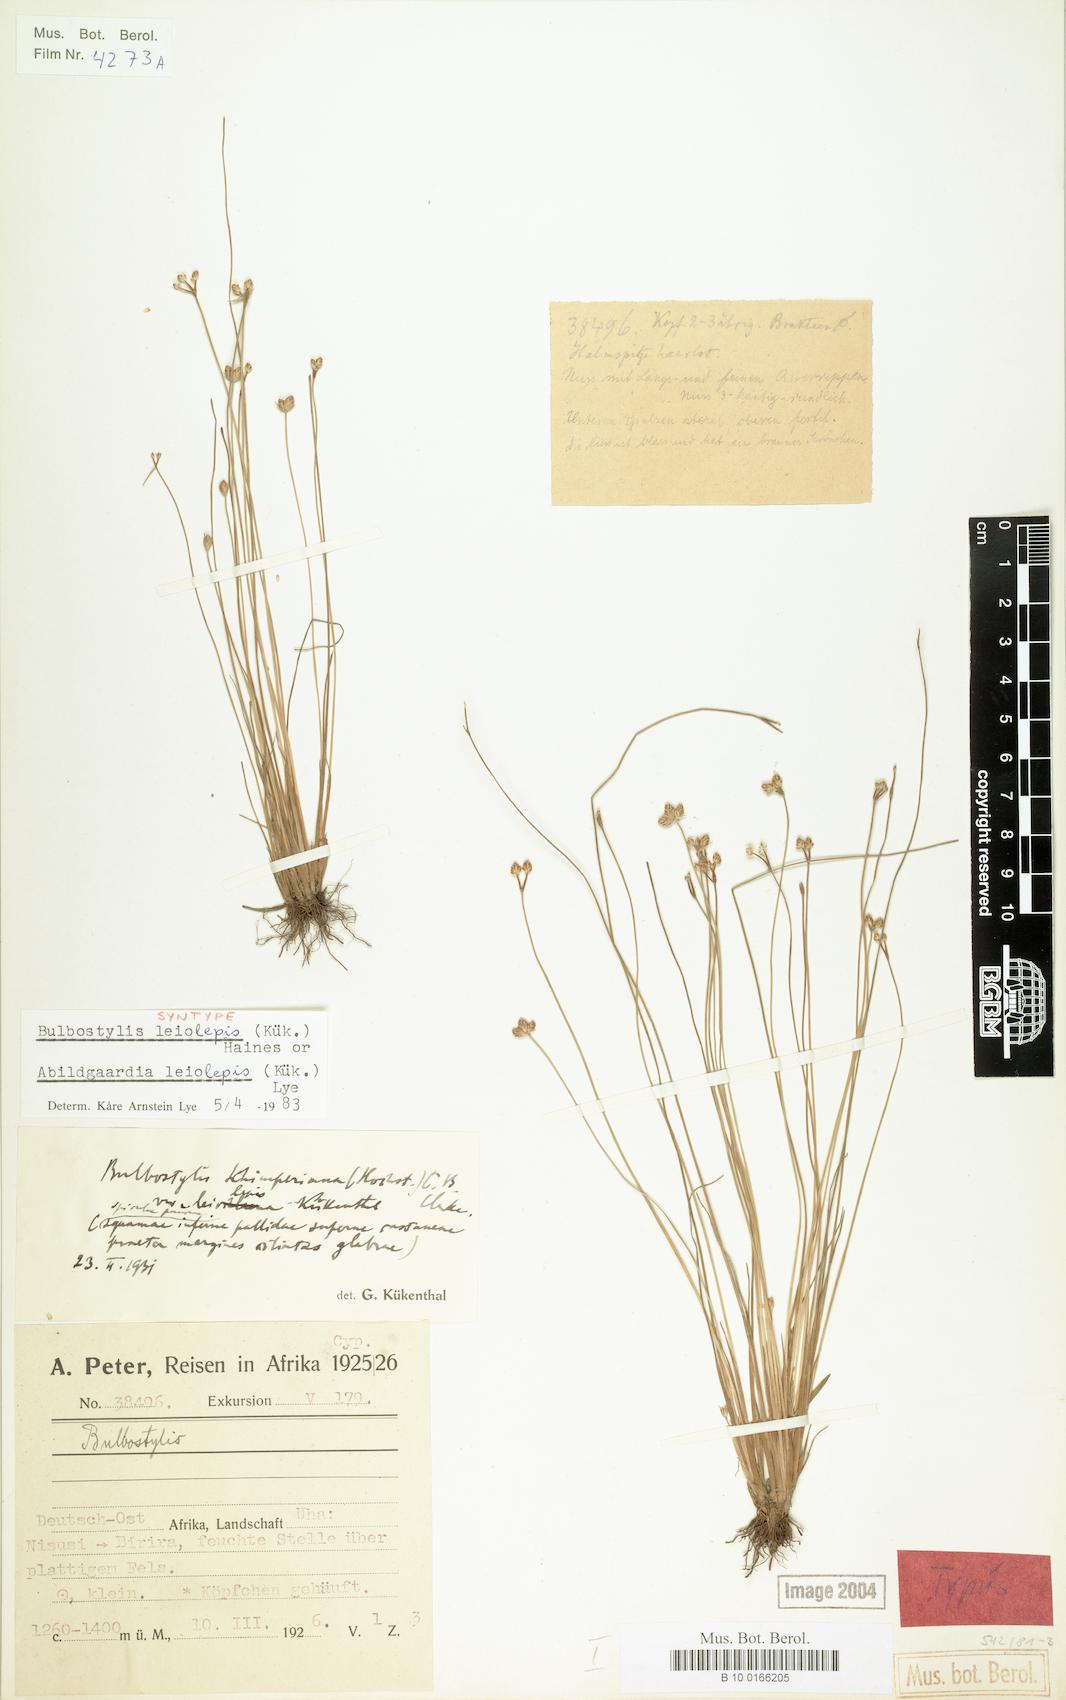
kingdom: Plantae
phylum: Tracheophyta
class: Liliopsida
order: Poales
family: Cyperaceae
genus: Bulbostylis
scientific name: Bulbostylis leiolepis
